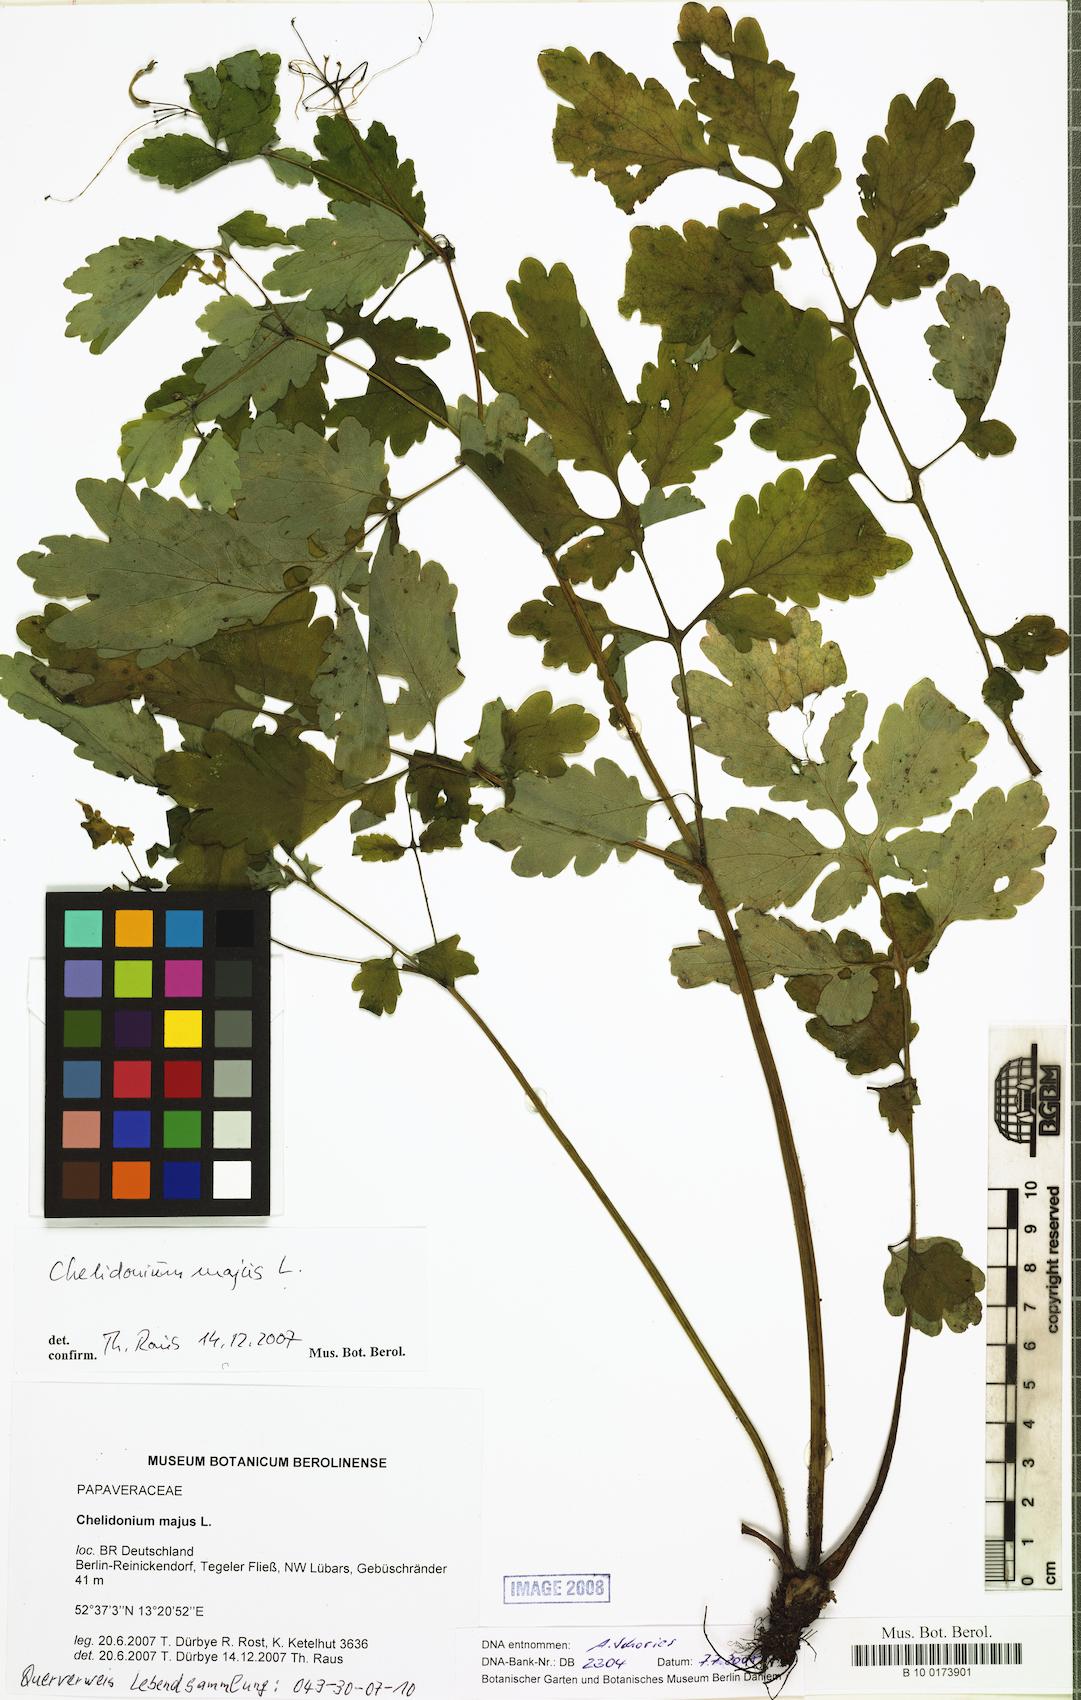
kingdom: Plantae
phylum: Tracheophyta
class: Magnoliopsida
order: Ranunculales
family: Papaveraceae
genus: Chelidonium
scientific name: Chelidonium majus
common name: Greater celandine
